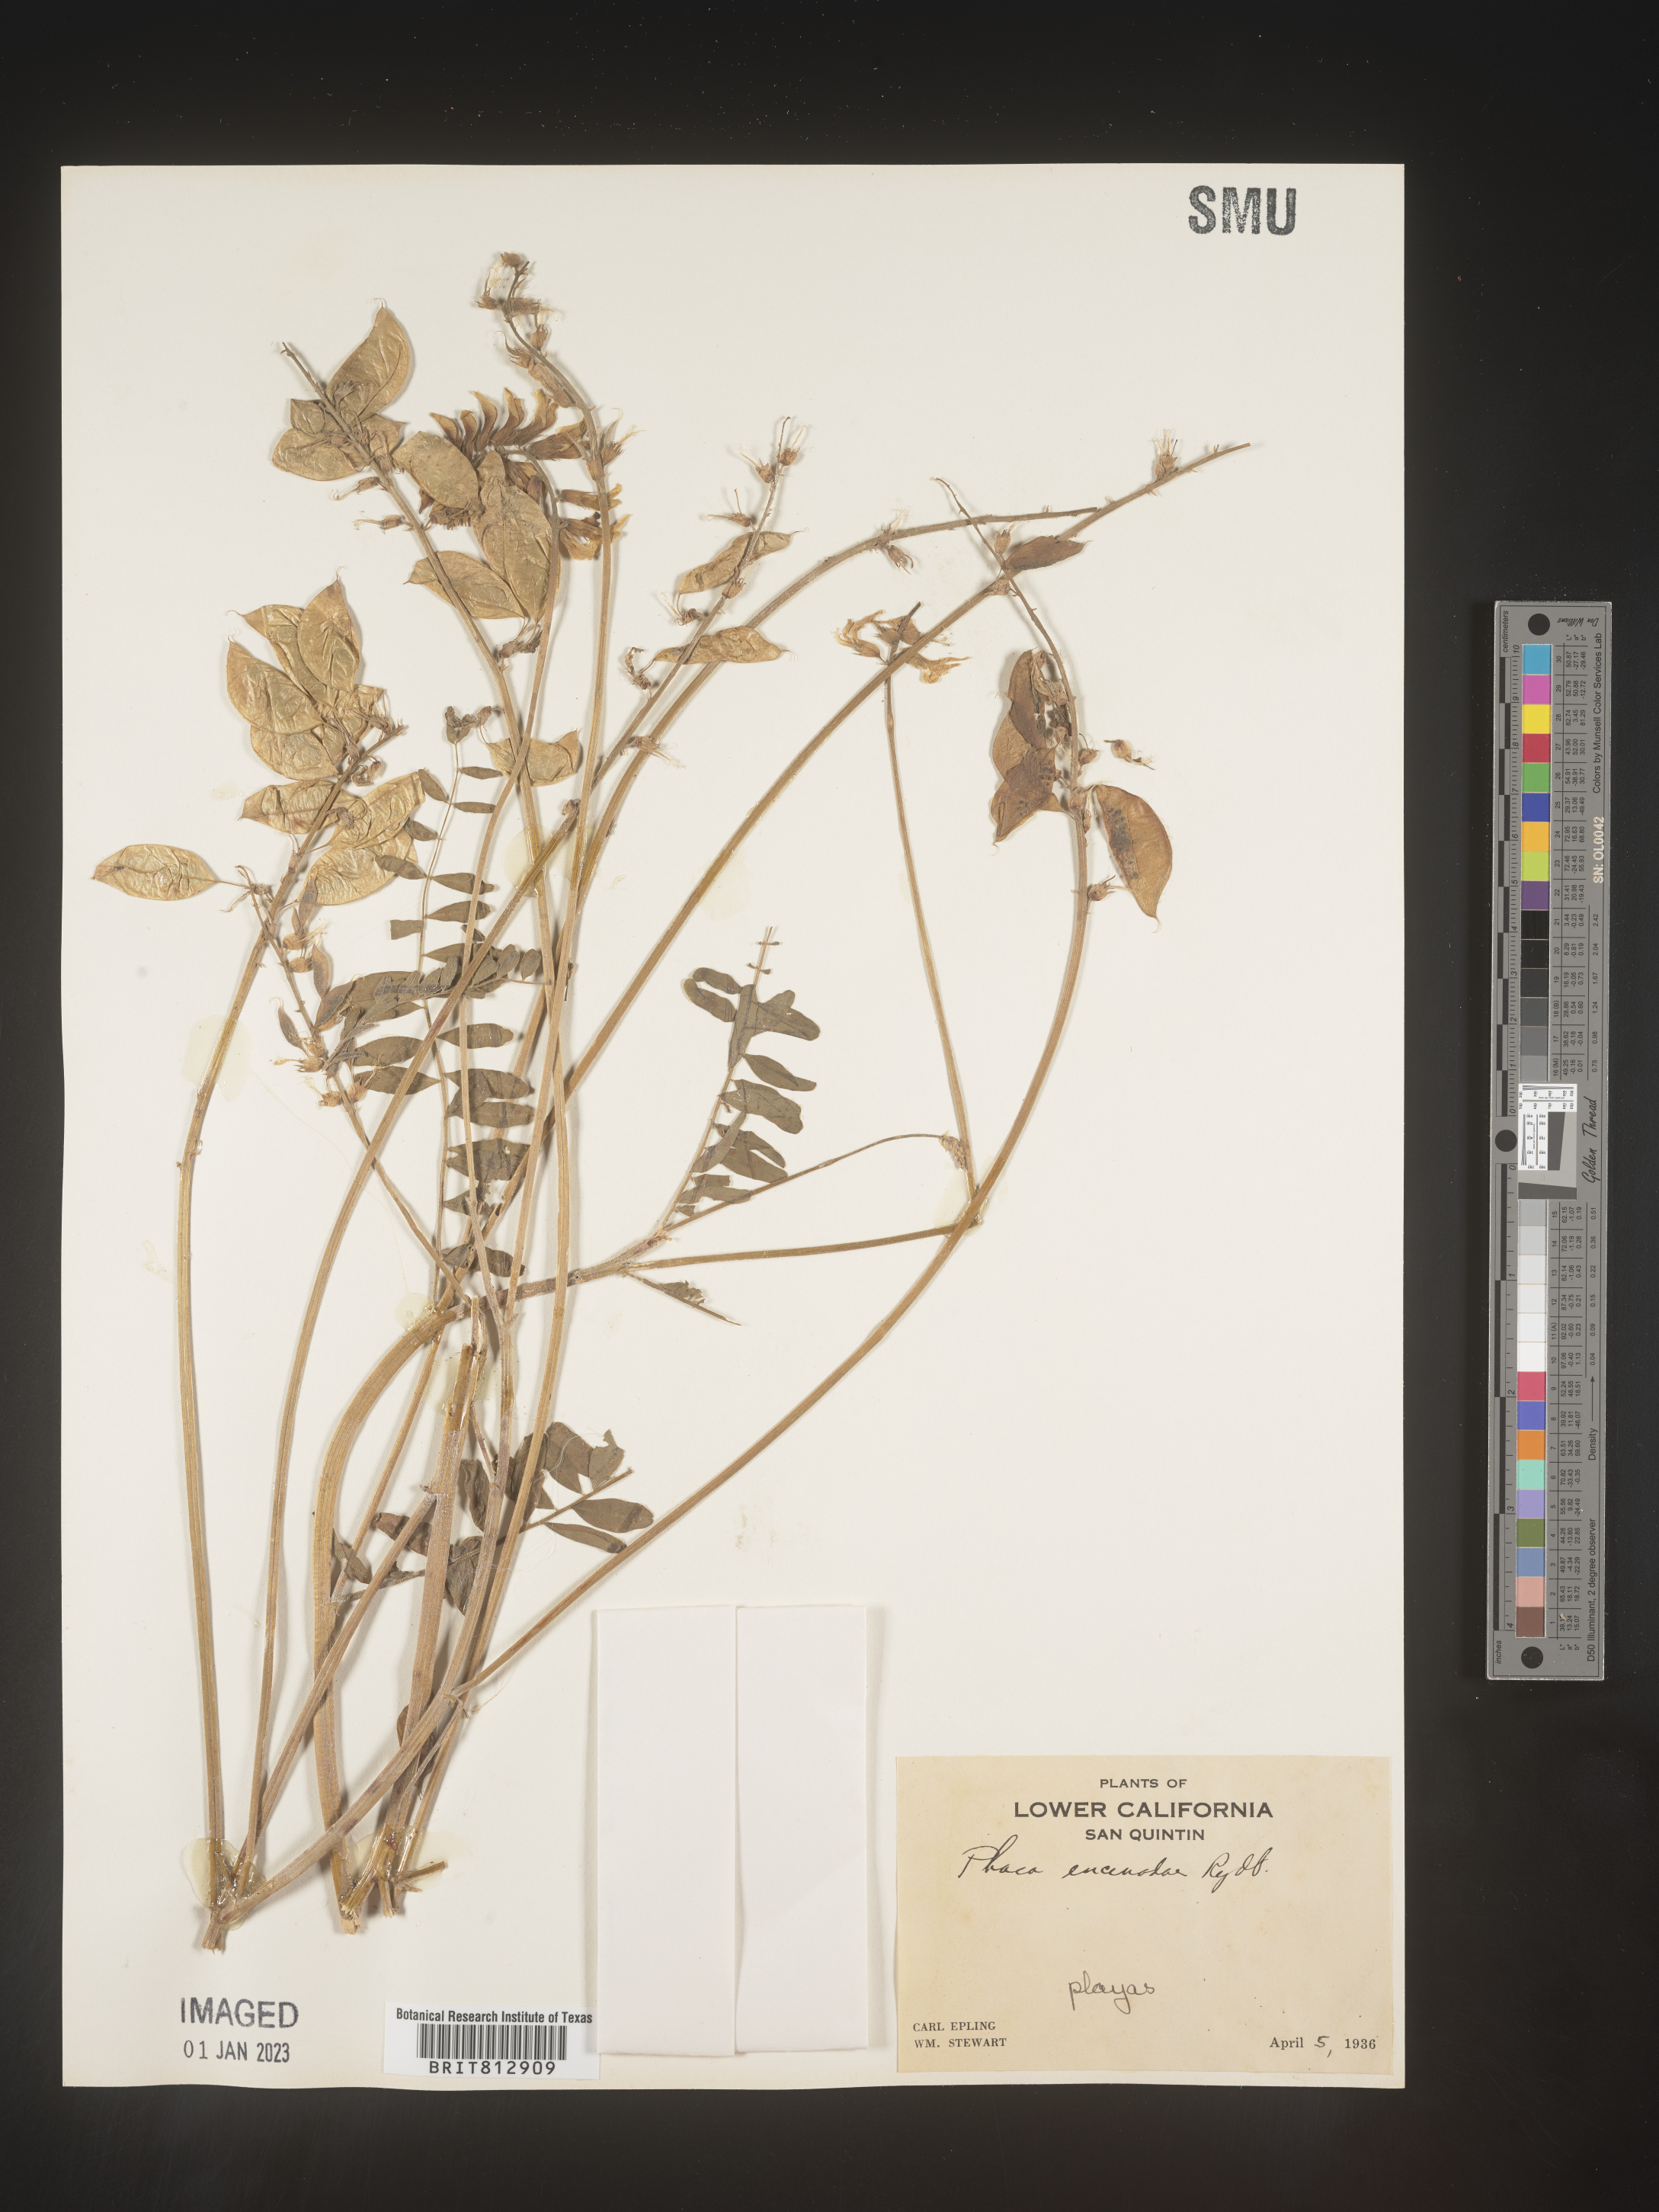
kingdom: Plantae
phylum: Tracheophyta
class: Magnoliopsida
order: Fabales
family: Fabaceae
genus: Astragalus
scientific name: Astragalus
